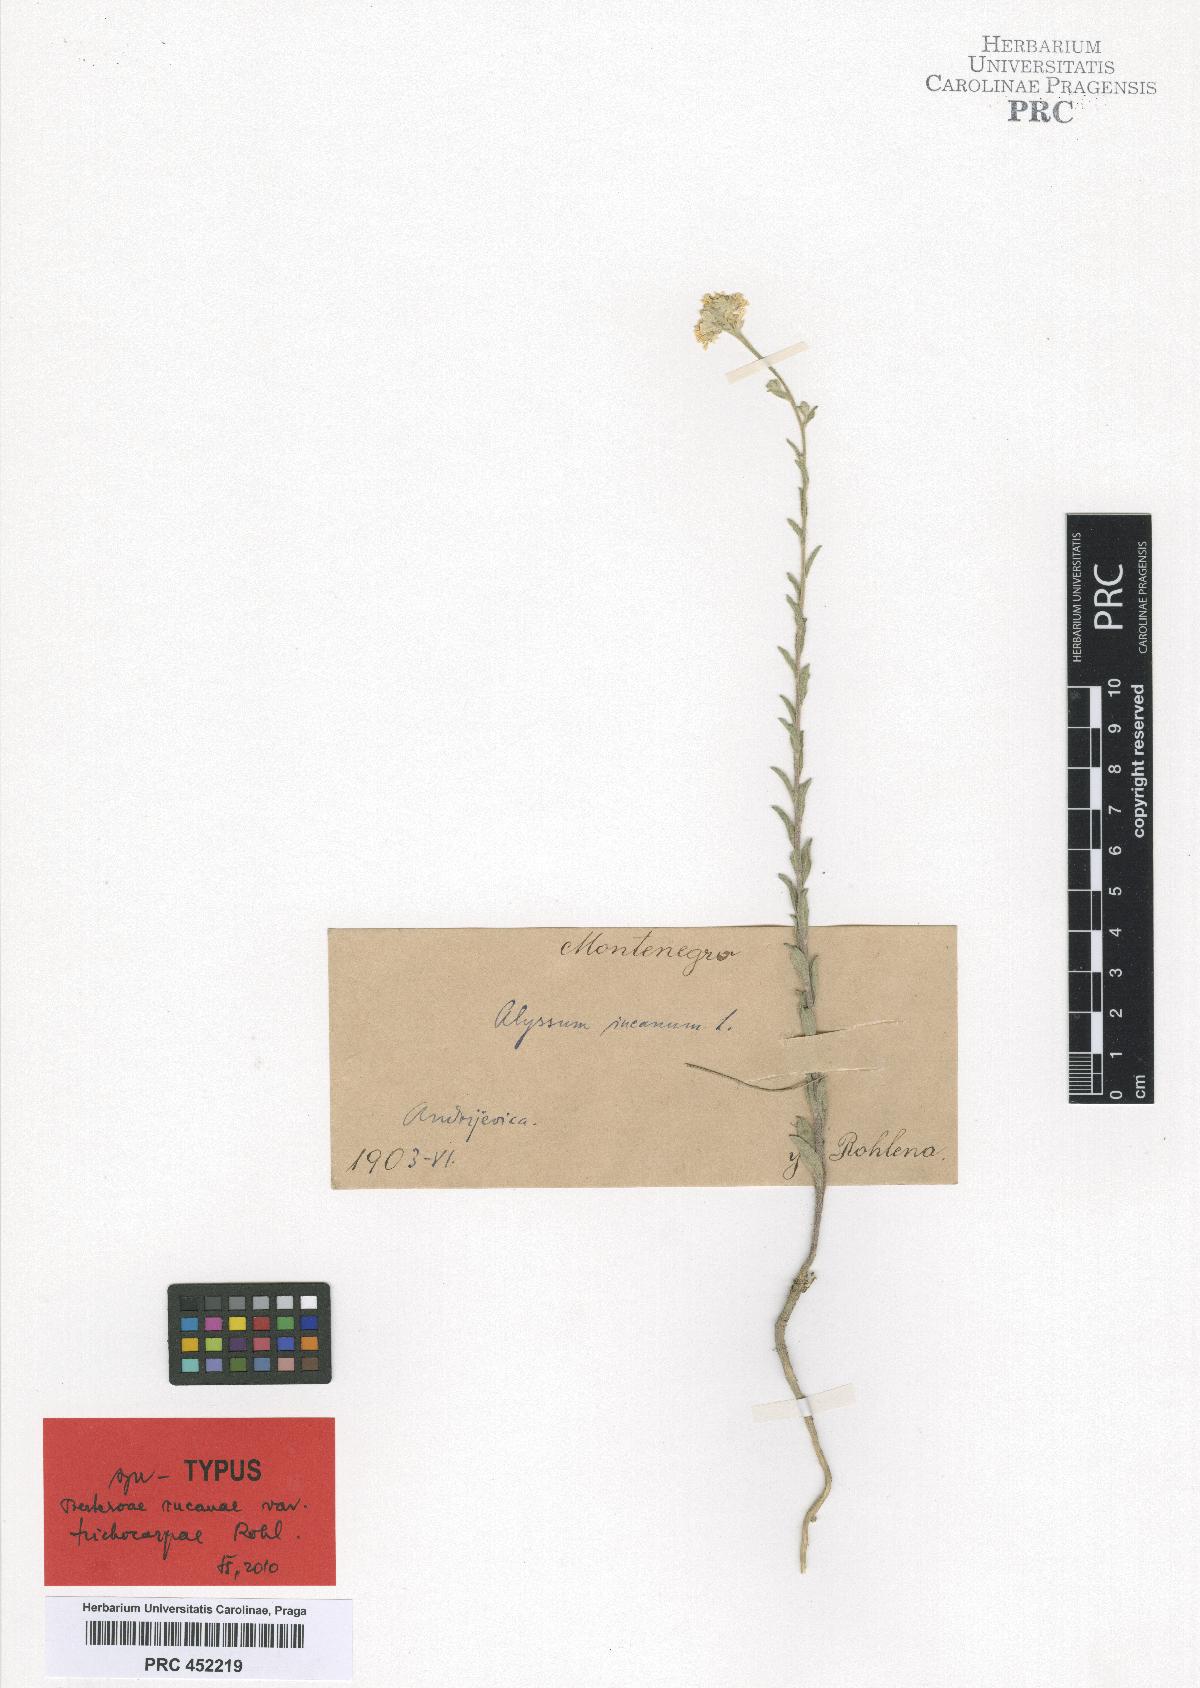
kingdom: Plantae
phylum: Tracheophyta
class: Magnoliopsida
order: Brassicales
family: Brassicaceae
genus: Berteroa
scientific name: Berteroa incana
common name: Hoary alison
